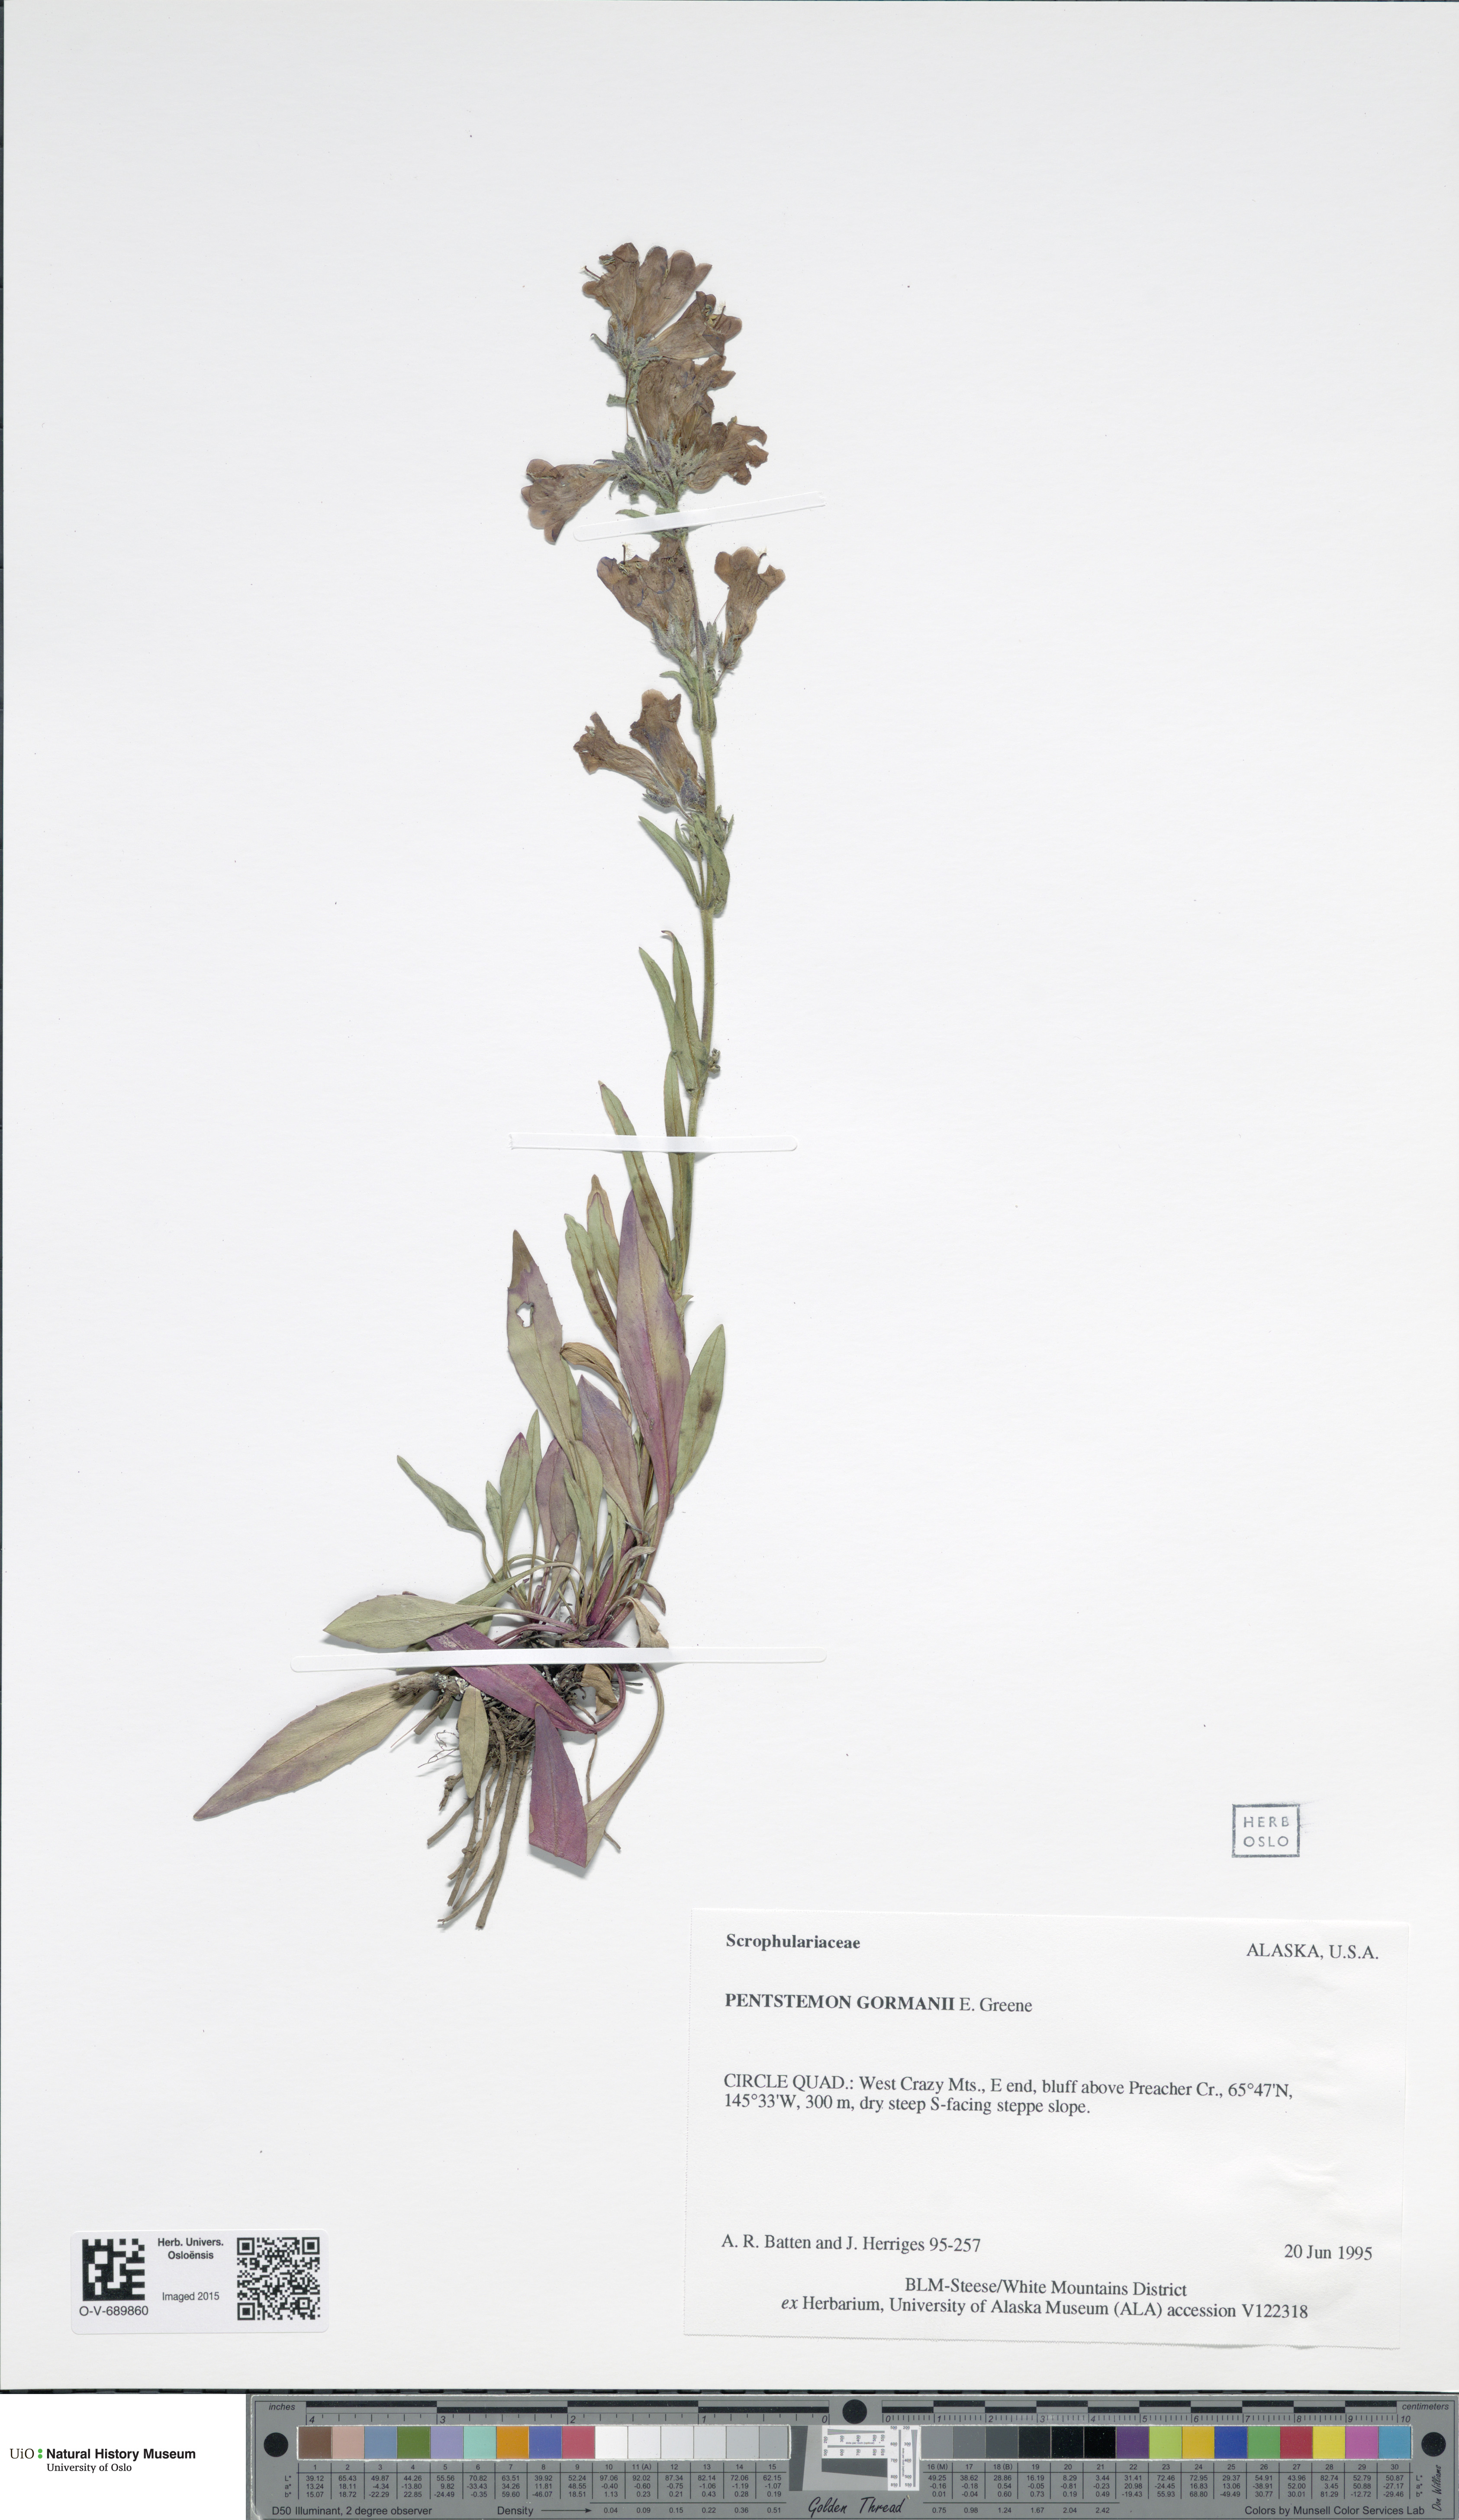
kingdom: Plantae
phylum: Tracheophyta
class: Magnoliopsida
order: Lamiales
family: Plantaginaceae
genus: Penstemon
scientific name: Penstemon gormanii
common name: Gorman's beardtongue
